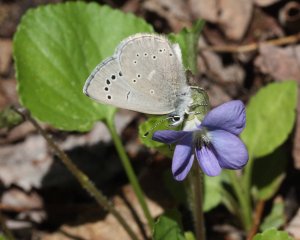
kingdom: Animalia
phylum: Arthropoda
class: Insecta
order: Lepidoptera
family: Lycaenidae
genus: Glaucopsyche
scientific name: Glaucopsyche lygdamus
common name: Silvery Blue
